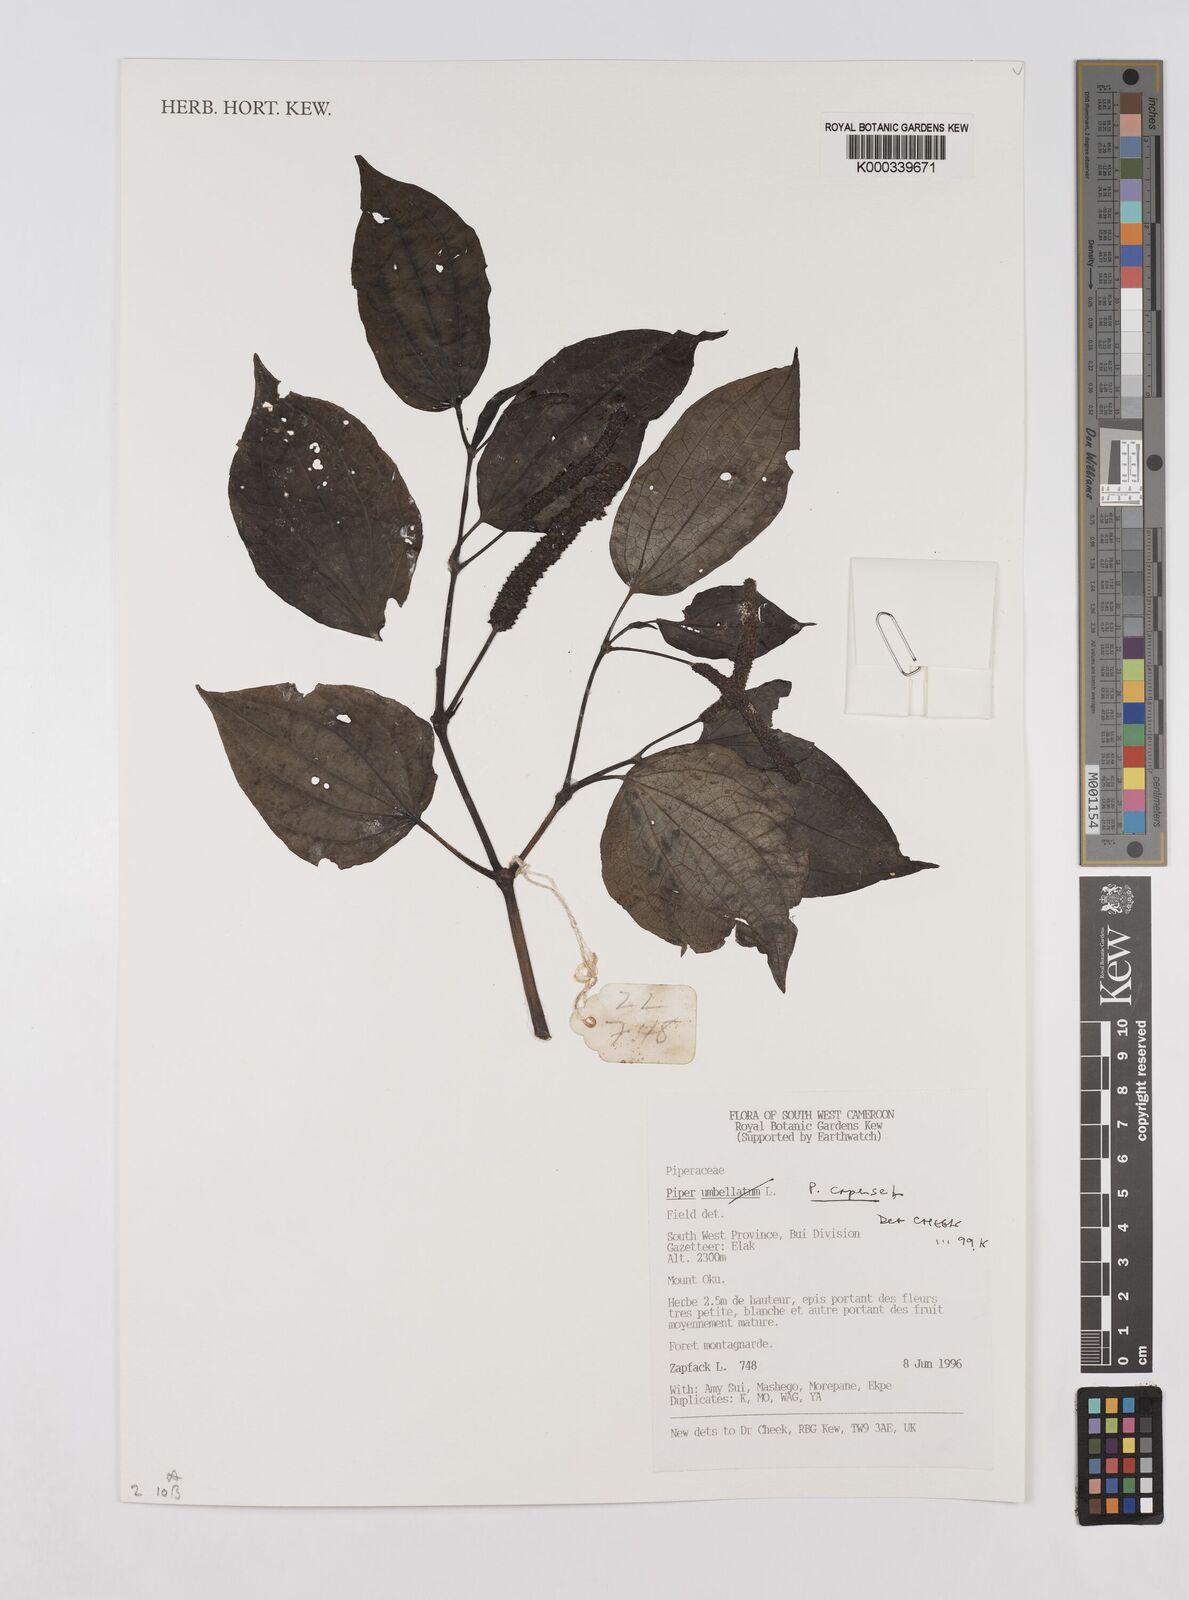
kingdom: Plantae
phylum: Tracheophyta
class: Magnoliopsida
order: Piperales
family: Piperaceae
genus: Piper
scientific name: Piper capense
